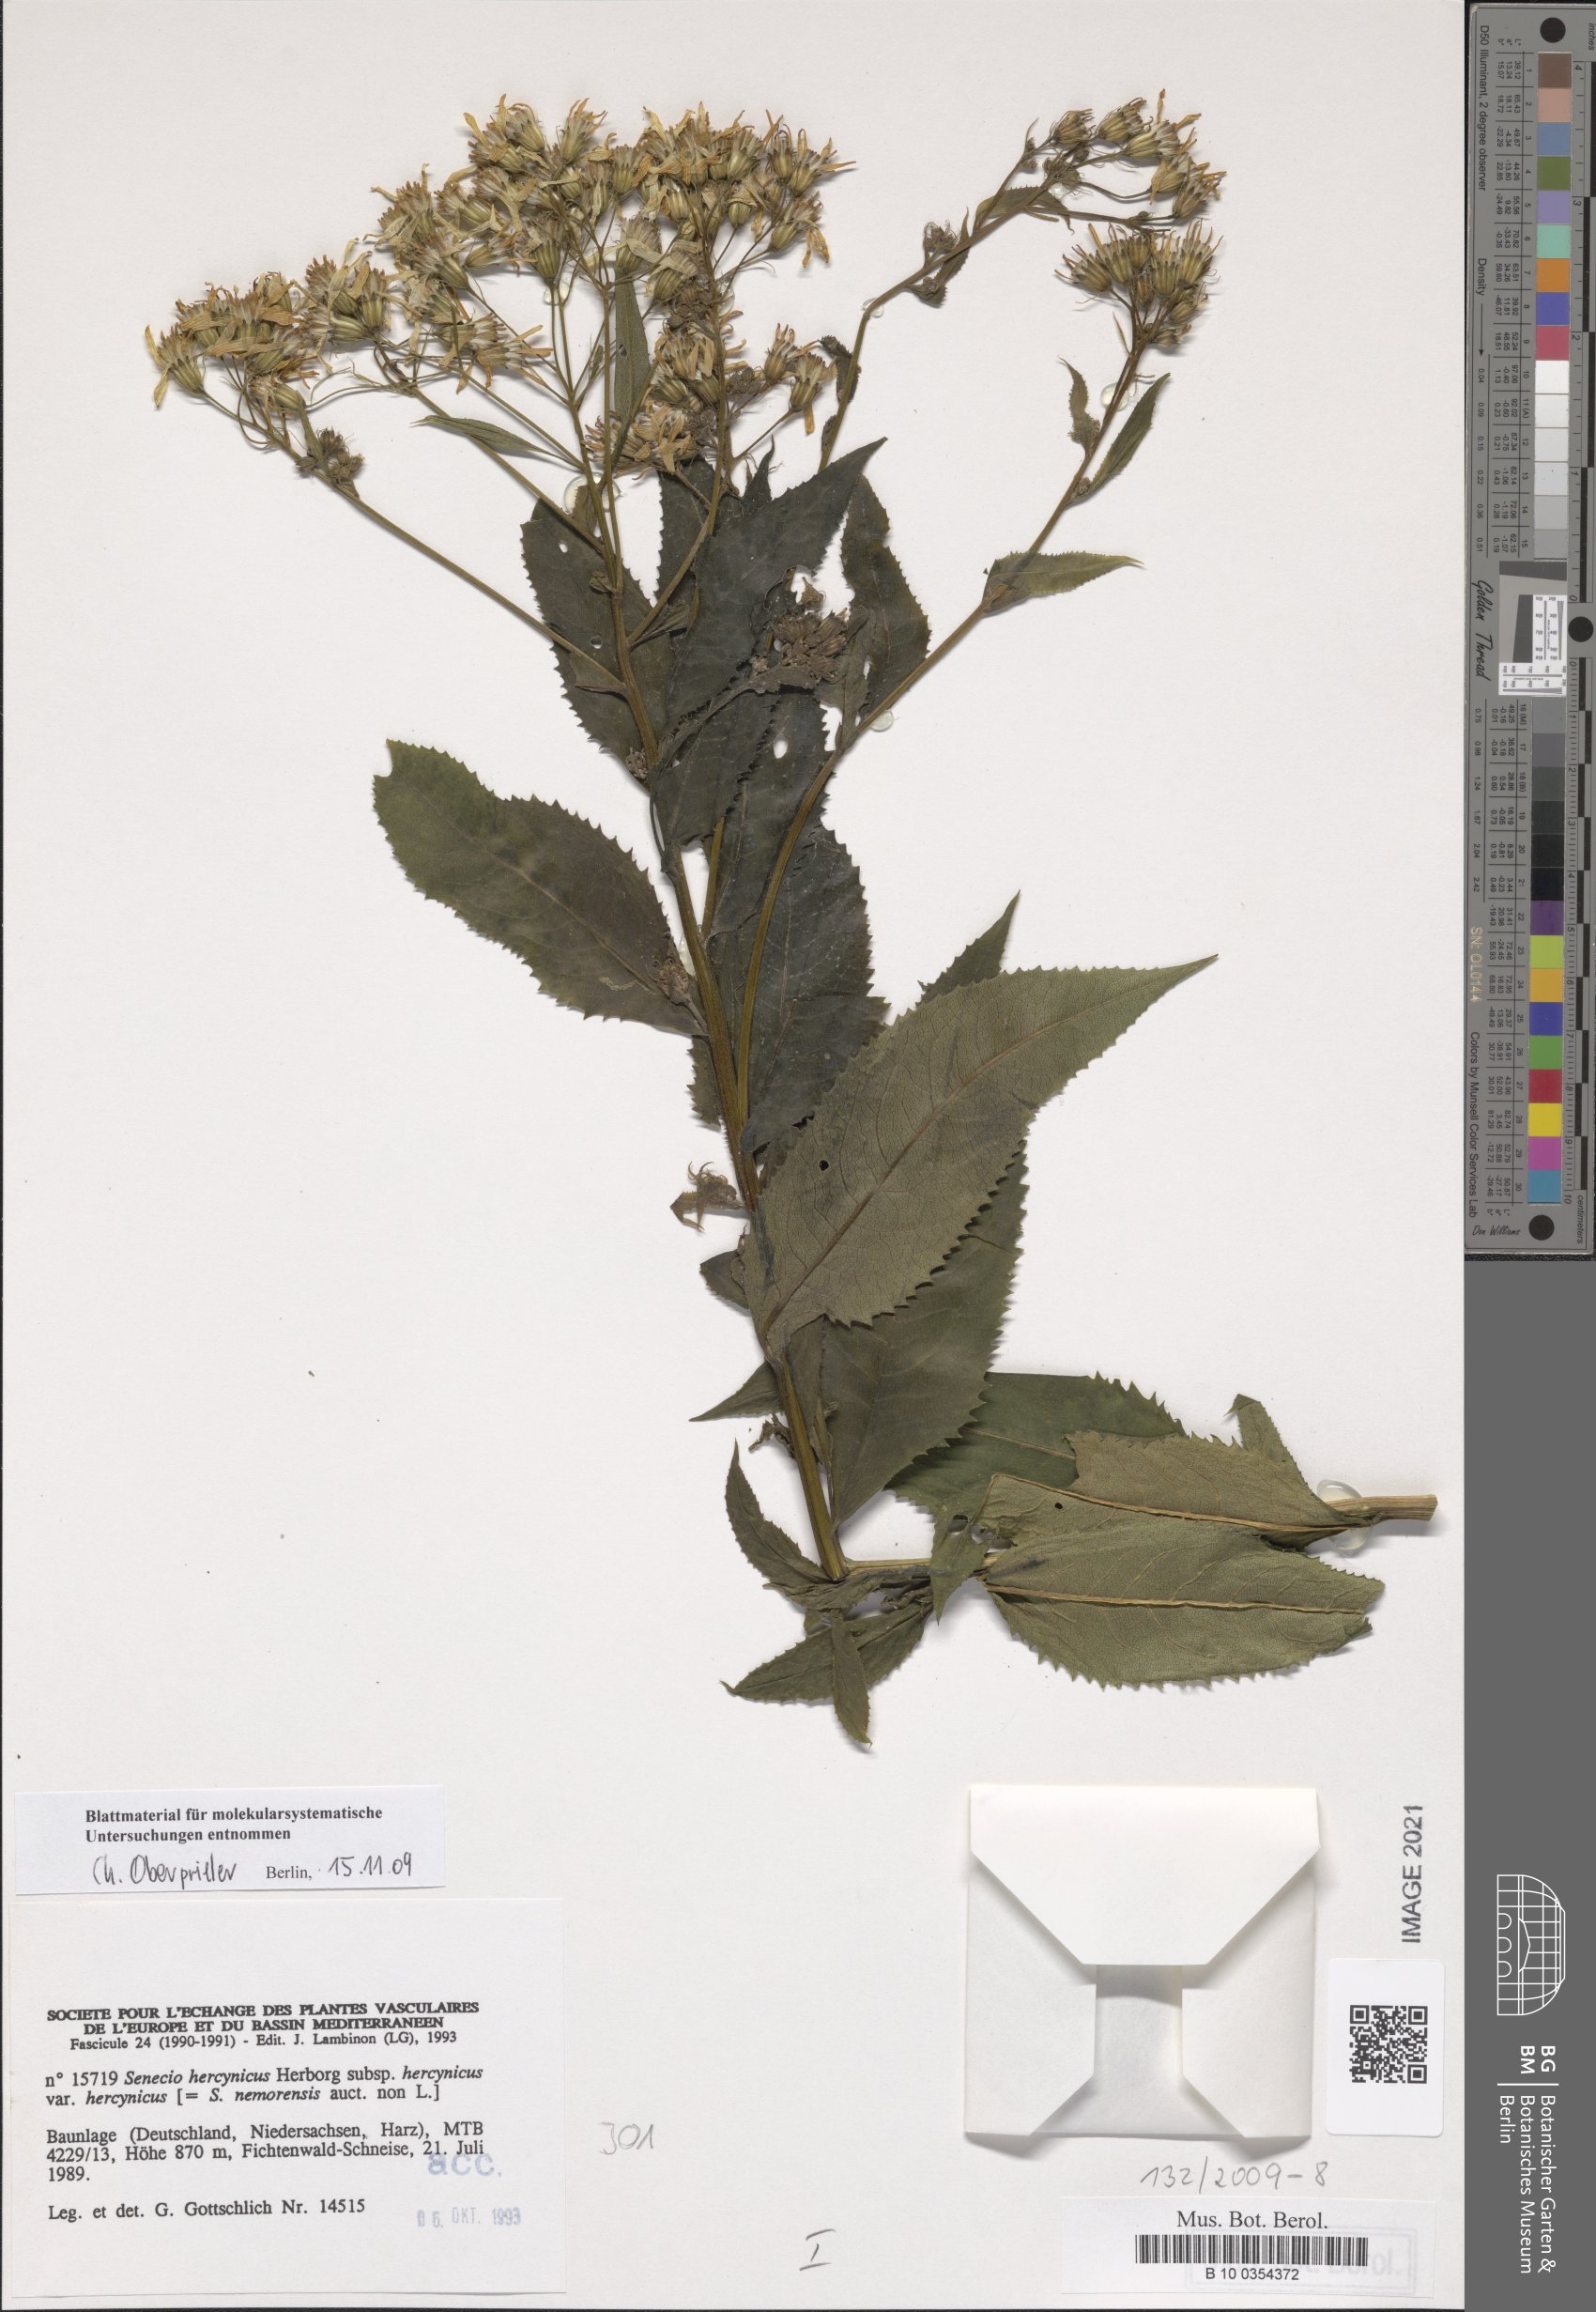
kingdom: Plantae
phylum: Tracheophyta
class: Magnoliopsida
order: Asterales
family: Asteraceae
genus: Senecio
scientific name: Senecio hercynicus
